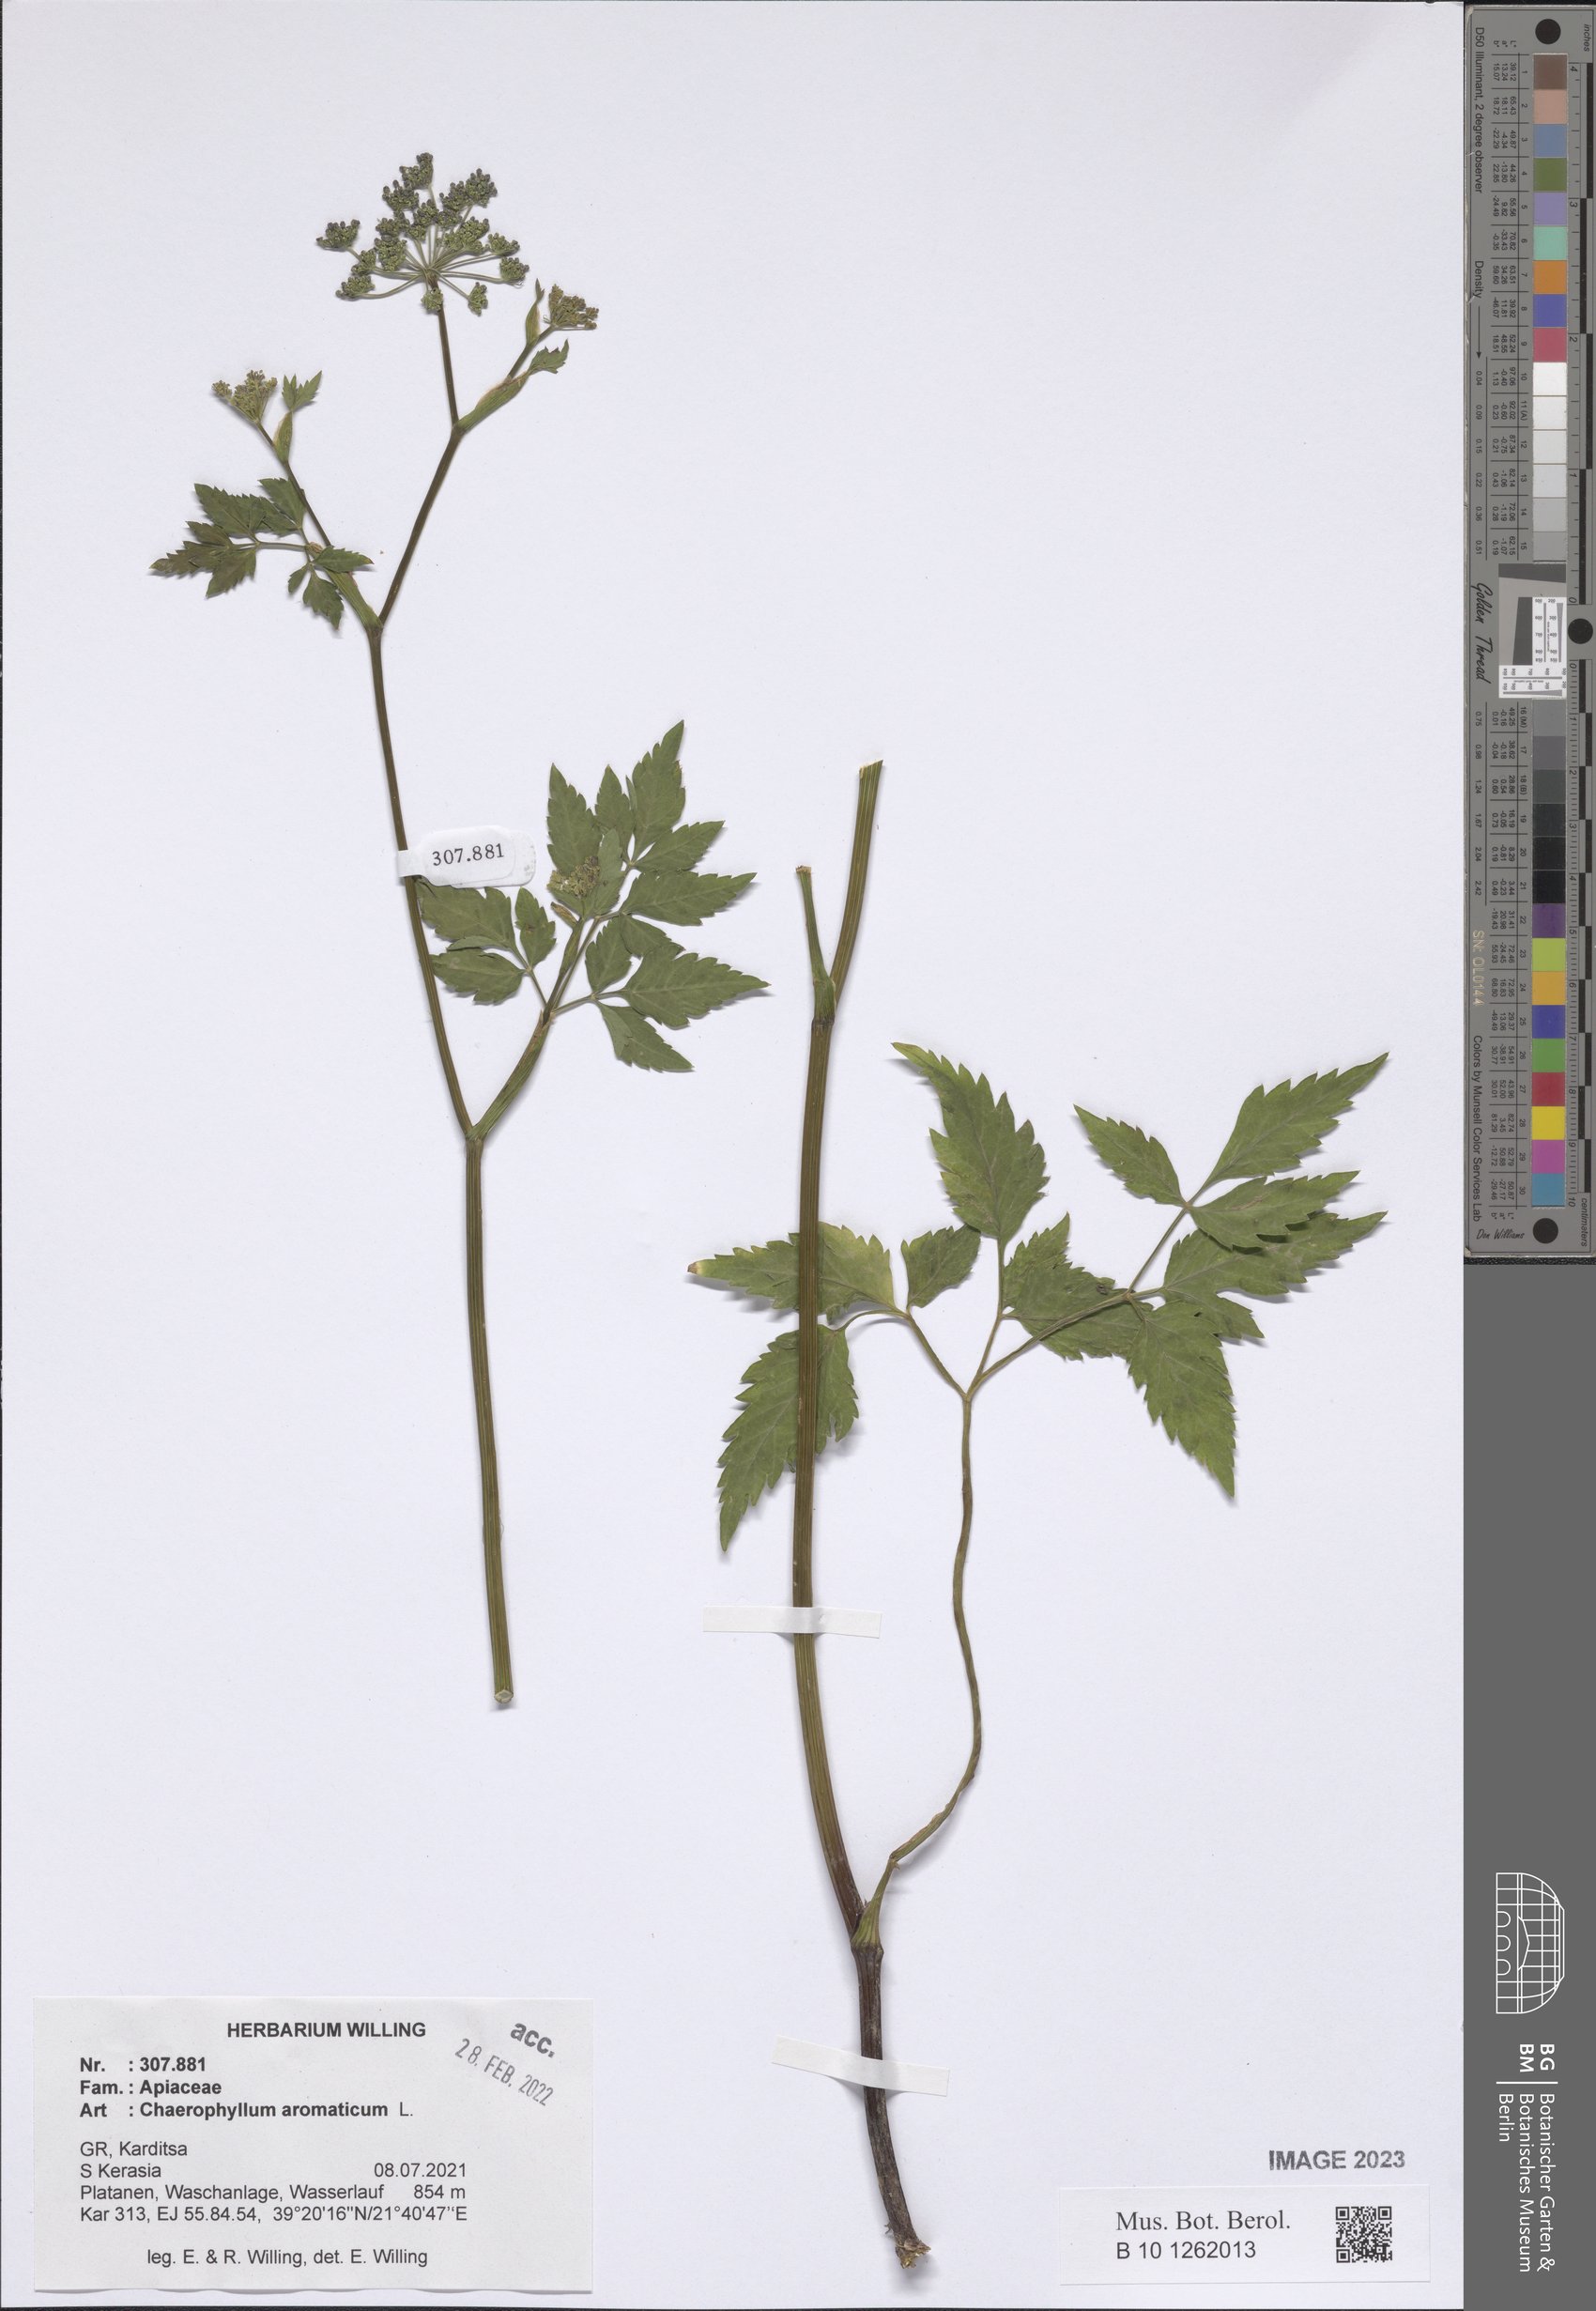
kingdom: Plantae
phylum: Tracheophyta
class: Magnoliopsida
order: Apiales
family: Apiaceae
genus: Chaerophyllum
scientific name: Chaerophyllum aromaticum
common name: Broadleaf chervil
